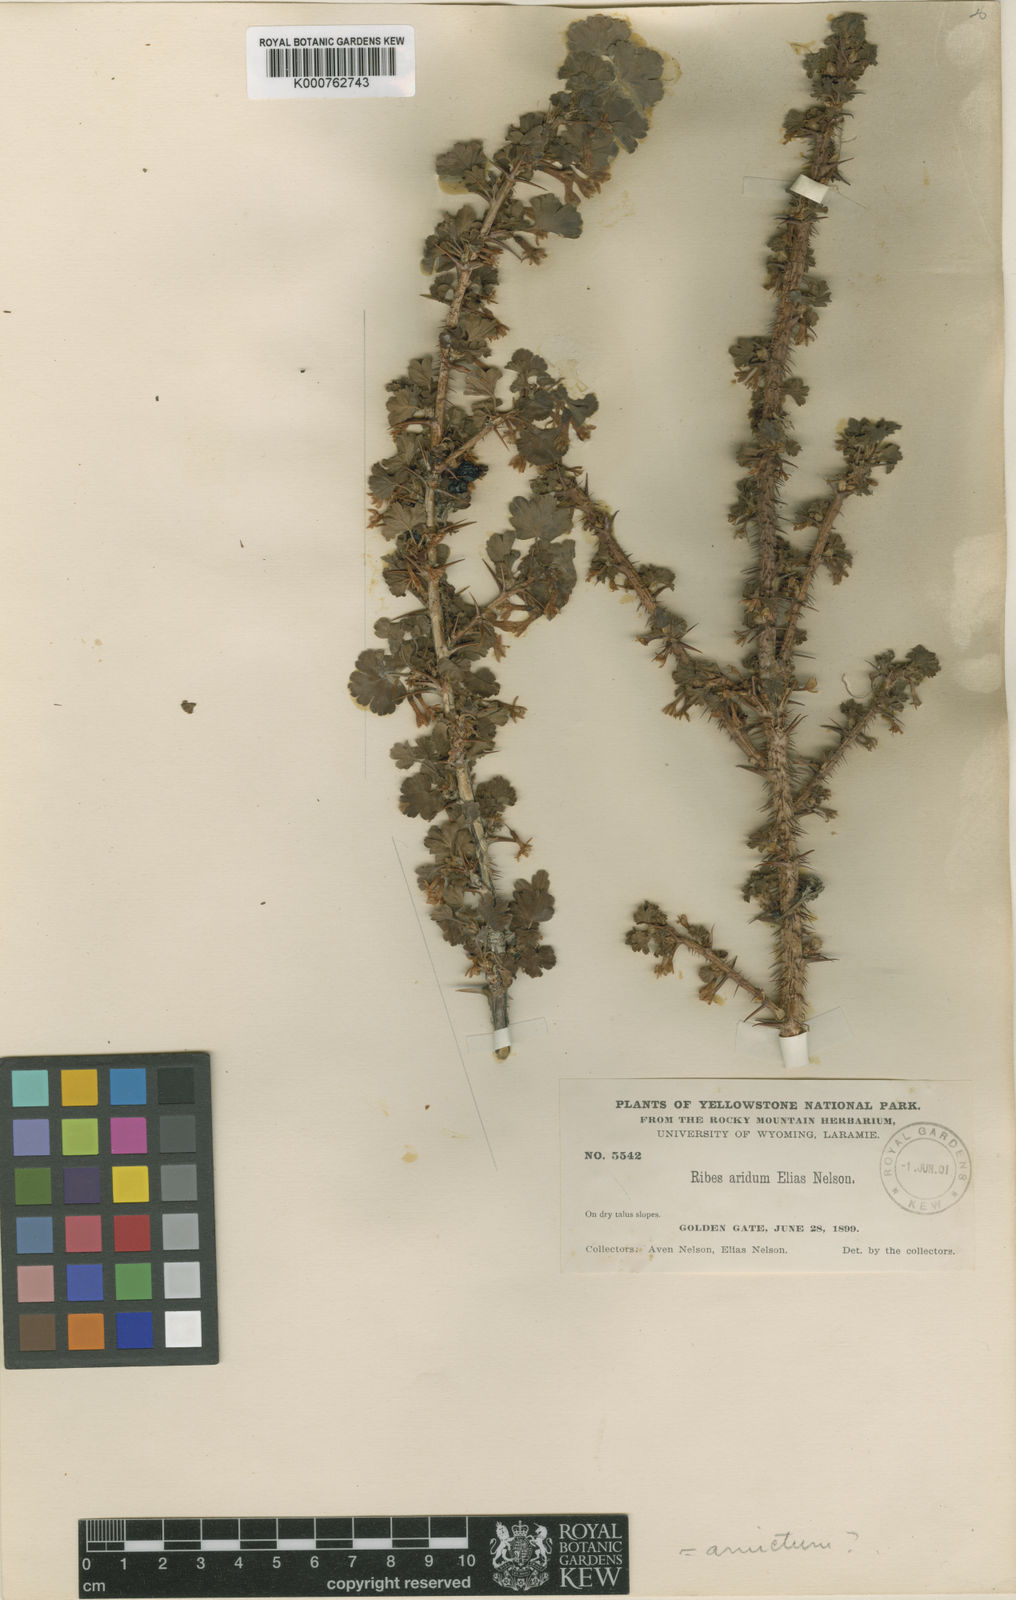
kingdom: Plantae
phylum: Tracheophyta
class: Magnoliopsida
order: Saxifragales
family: Grossulariaceae
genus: Ribes
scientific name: Ribes roezlii
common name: Sierra gooseberry
